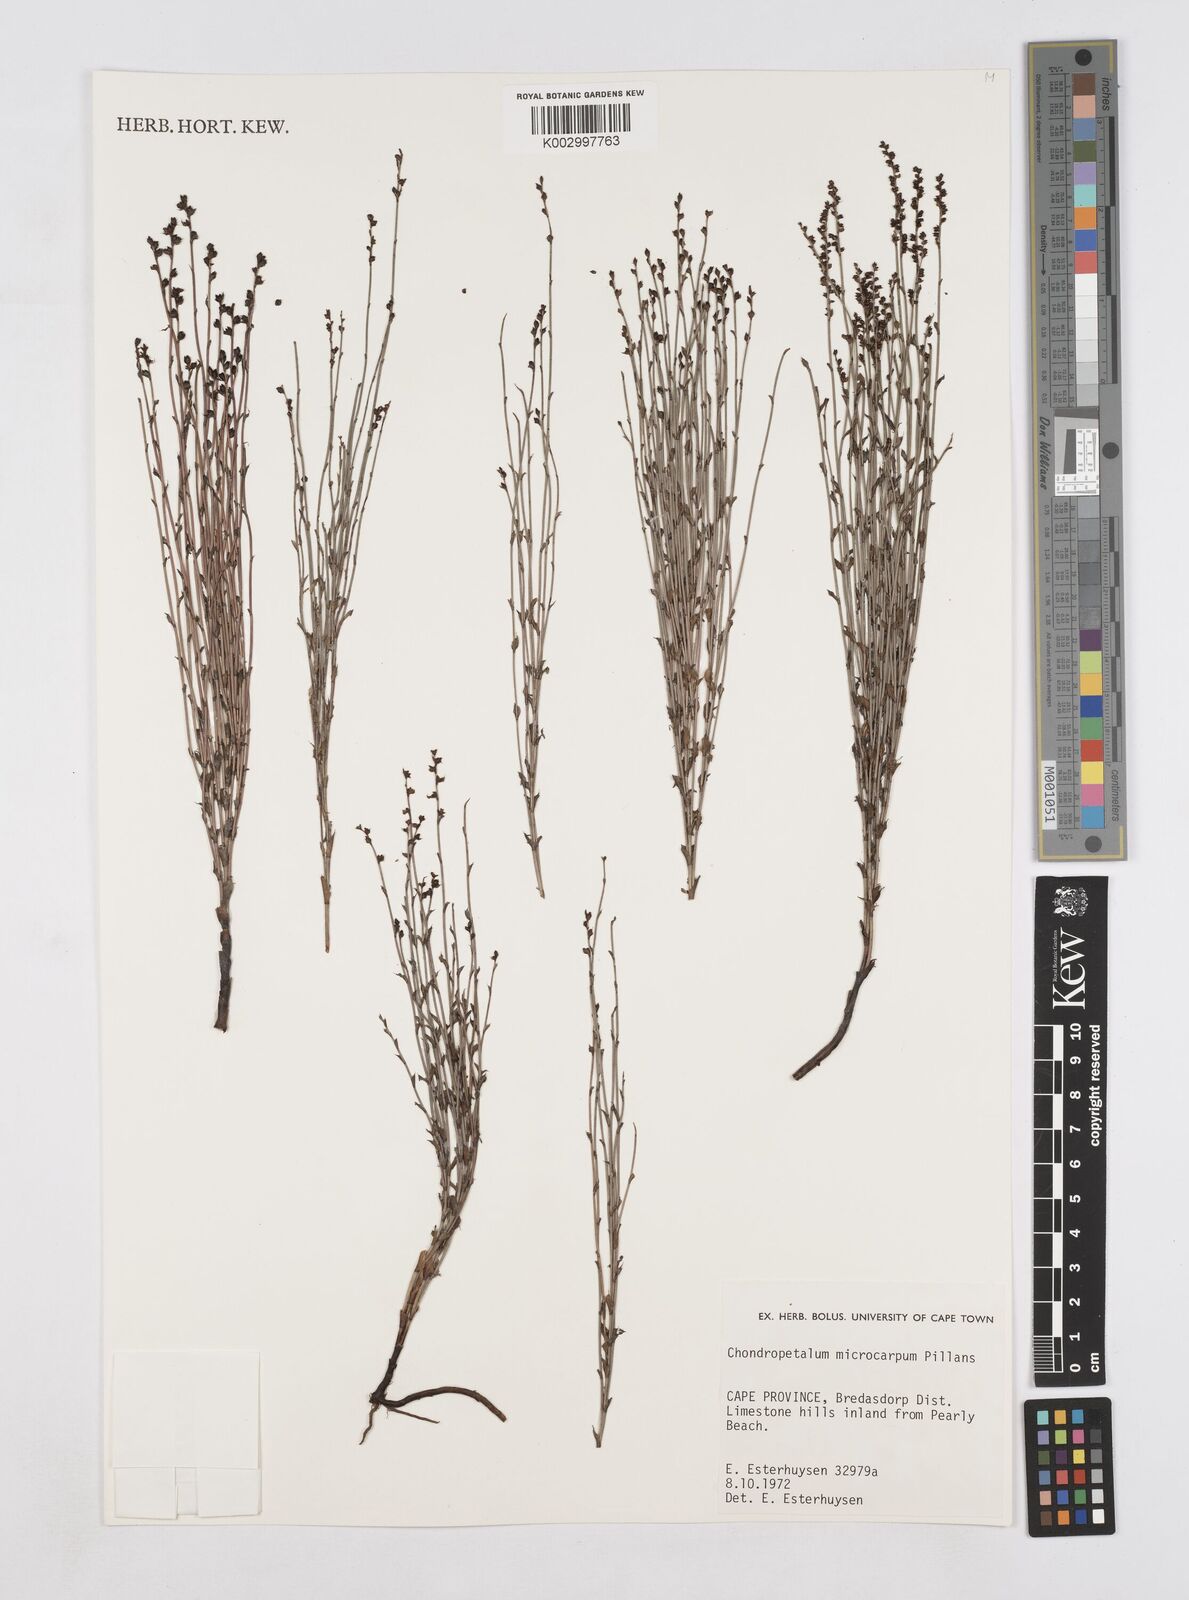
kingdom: Plantae
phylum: Tracheophyta
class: Liliopsida
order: Poales
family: Restionaceae
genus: Elegia
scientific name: Elegia juncea
